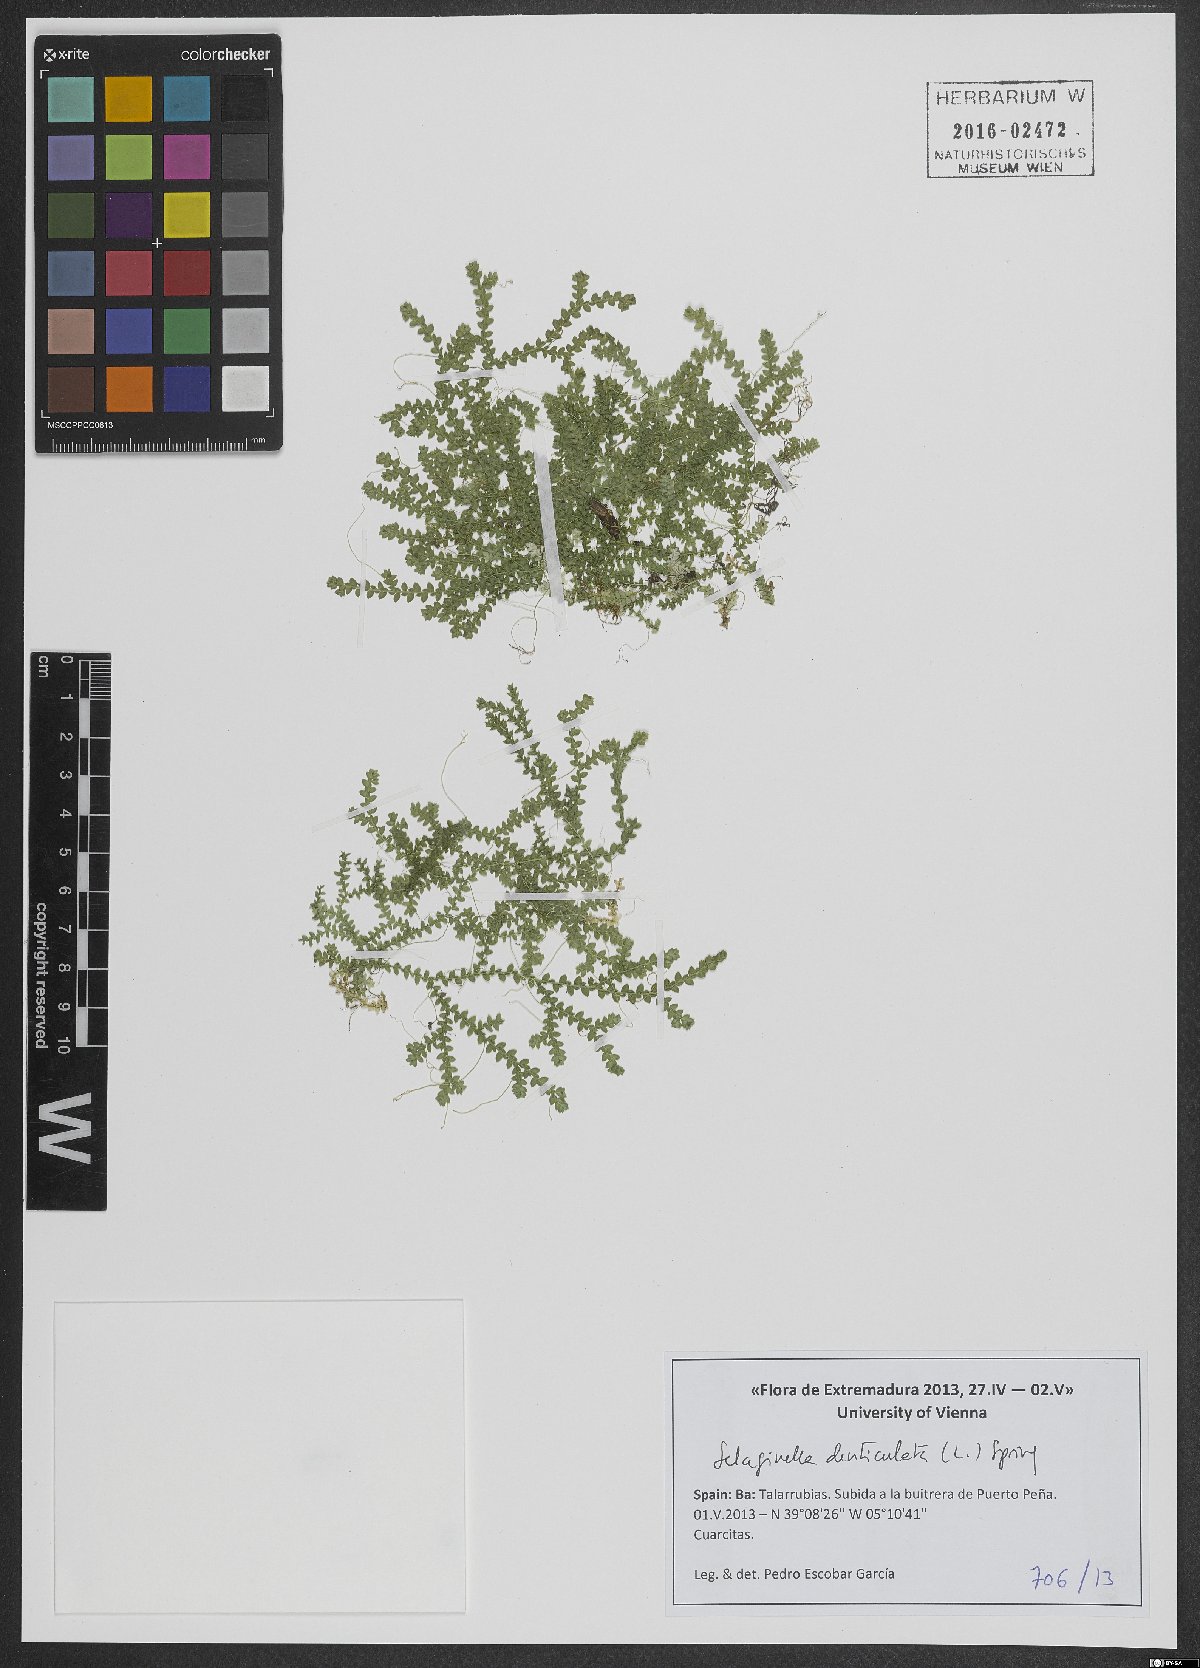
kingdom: Plantae
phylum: Tracheophyta
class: Lycopodiopsida
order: Selaginellales
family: Selaginellaceae
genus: Selaginella
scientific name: Selaginella denticulata
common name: Toothed-leaved clubmoss
